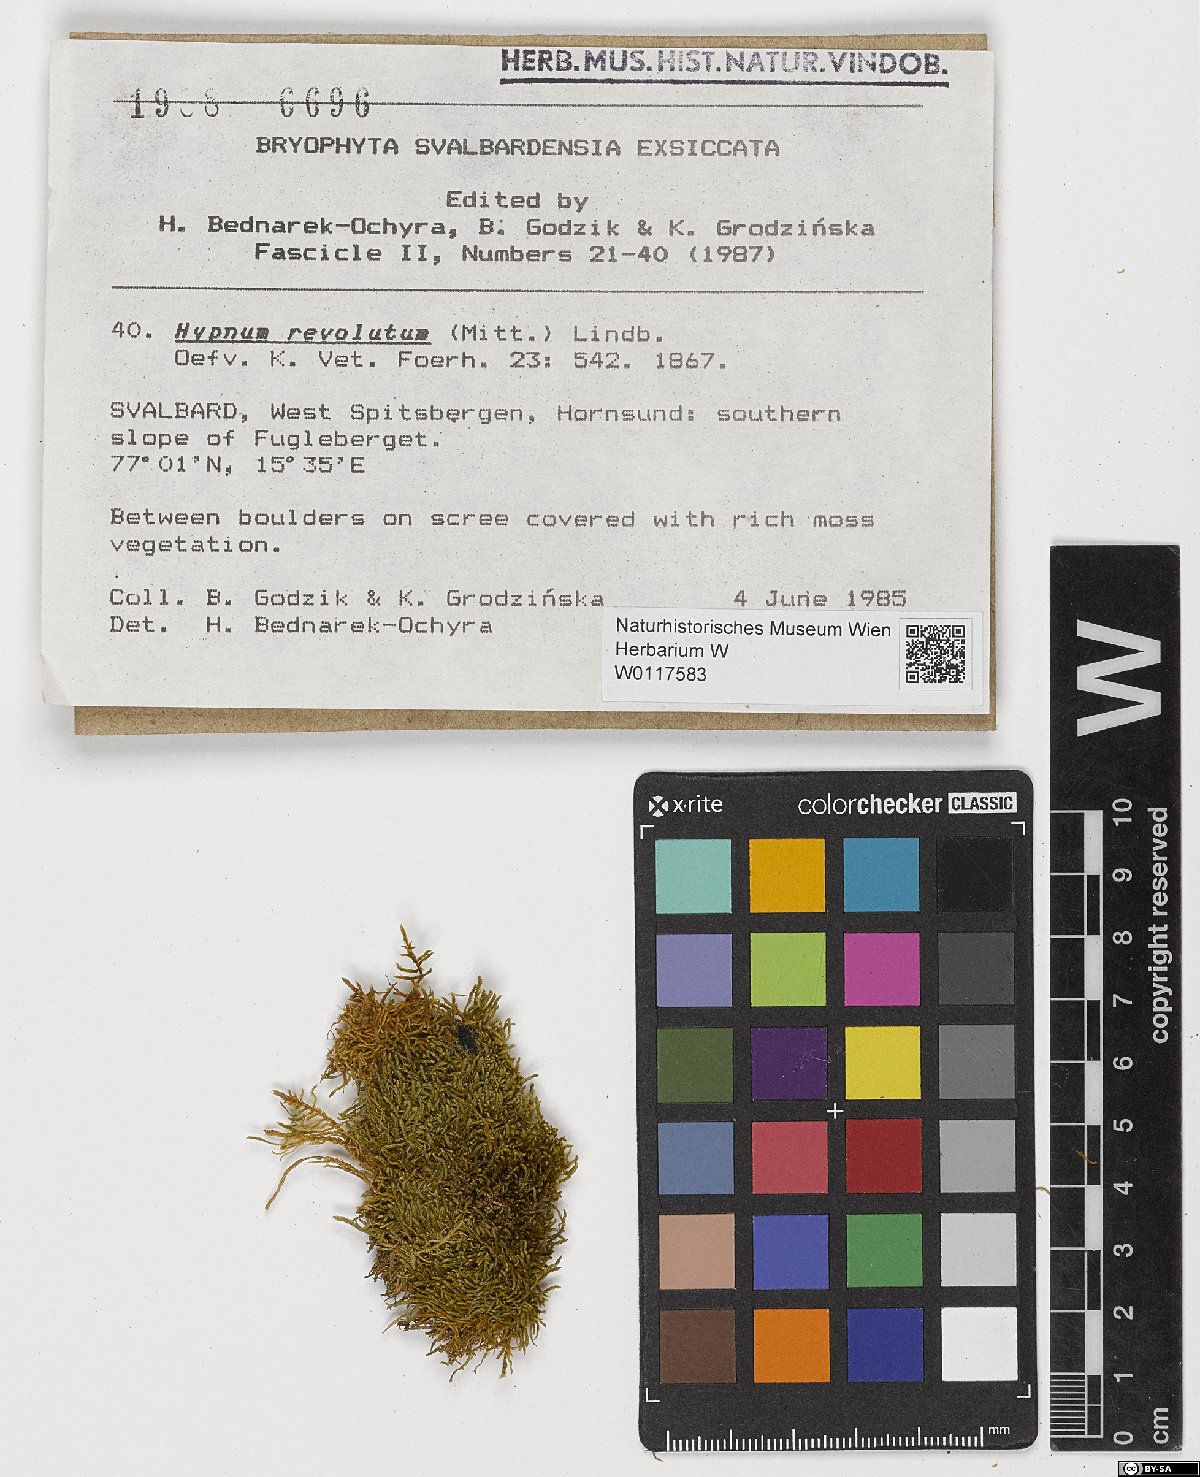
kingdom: Plantae
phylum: Bryophyta
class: Bryopsida
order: Hypnales
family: Pylaisiaceae
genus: Roaldia
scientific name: Roaldia revoluta
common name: Revolute plait-moss
